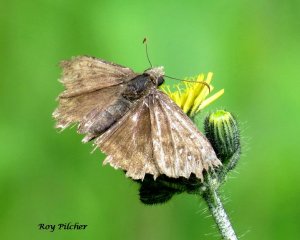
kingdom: Animalia
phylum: Arthropoda
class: Insecta
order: Lepidoptera
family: Hesperiidae
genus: Gesta
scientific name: Gesta
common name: Juvenal's Duskywing
